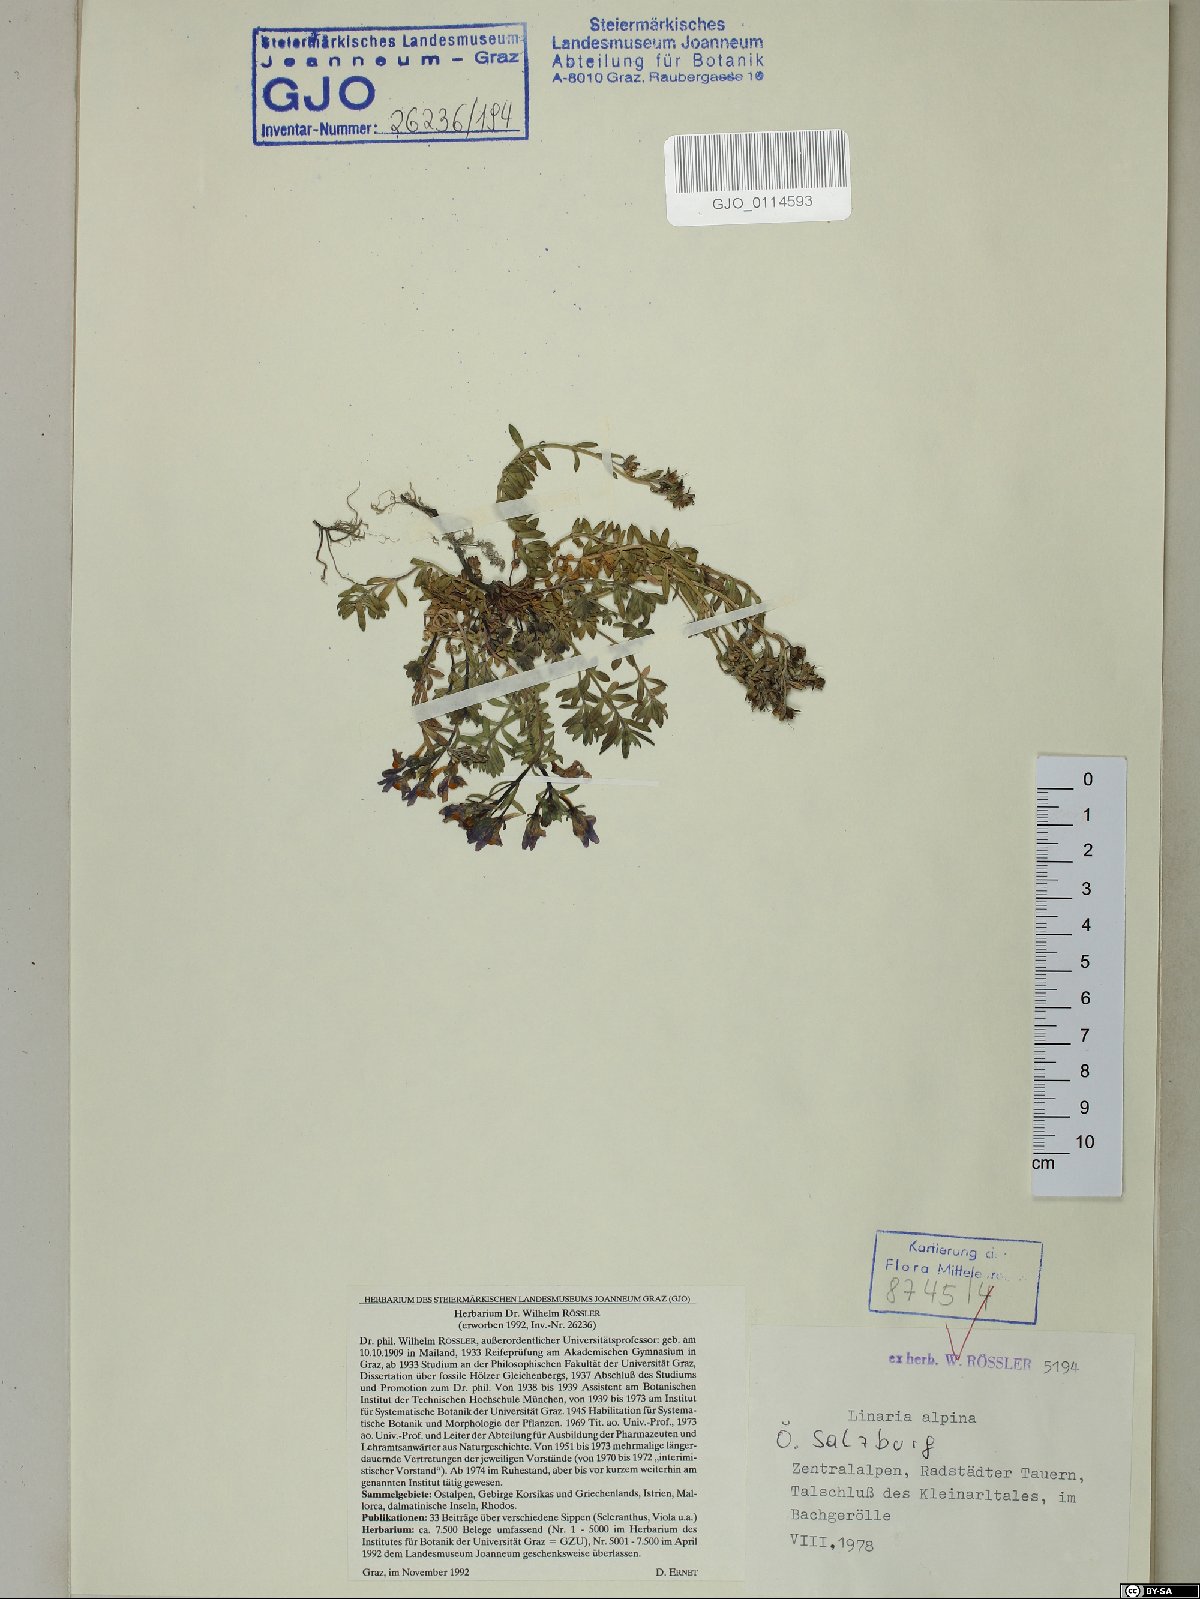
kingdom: Plantae
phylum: Tracheophyta
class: Magnoliopsida
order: Lamiales
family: Plantaginaceae
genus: Linaria
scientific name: Linaria alpina
